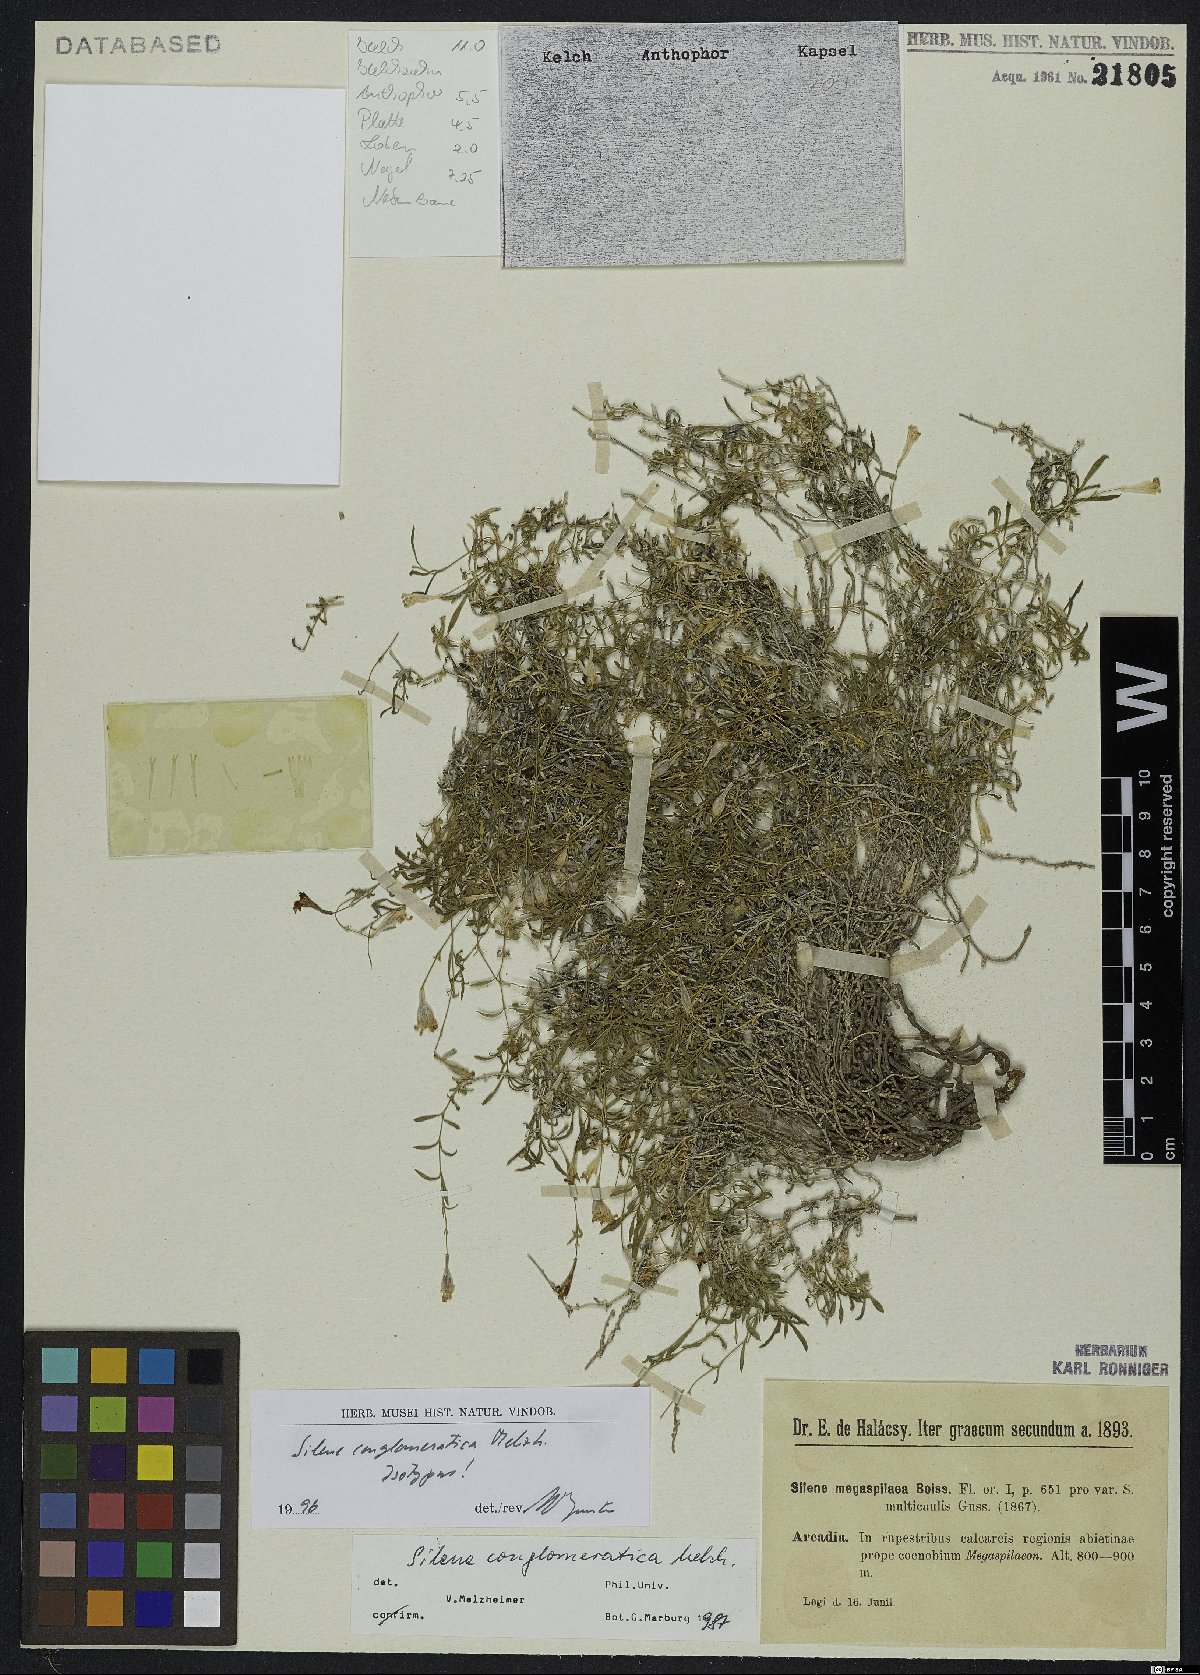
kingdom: Plantae
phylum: Tracheophyta
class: Magnoliopsida
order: Caryophyllales
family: Caryophyllaceae
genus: Silene
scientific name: Silene conglomeratica
